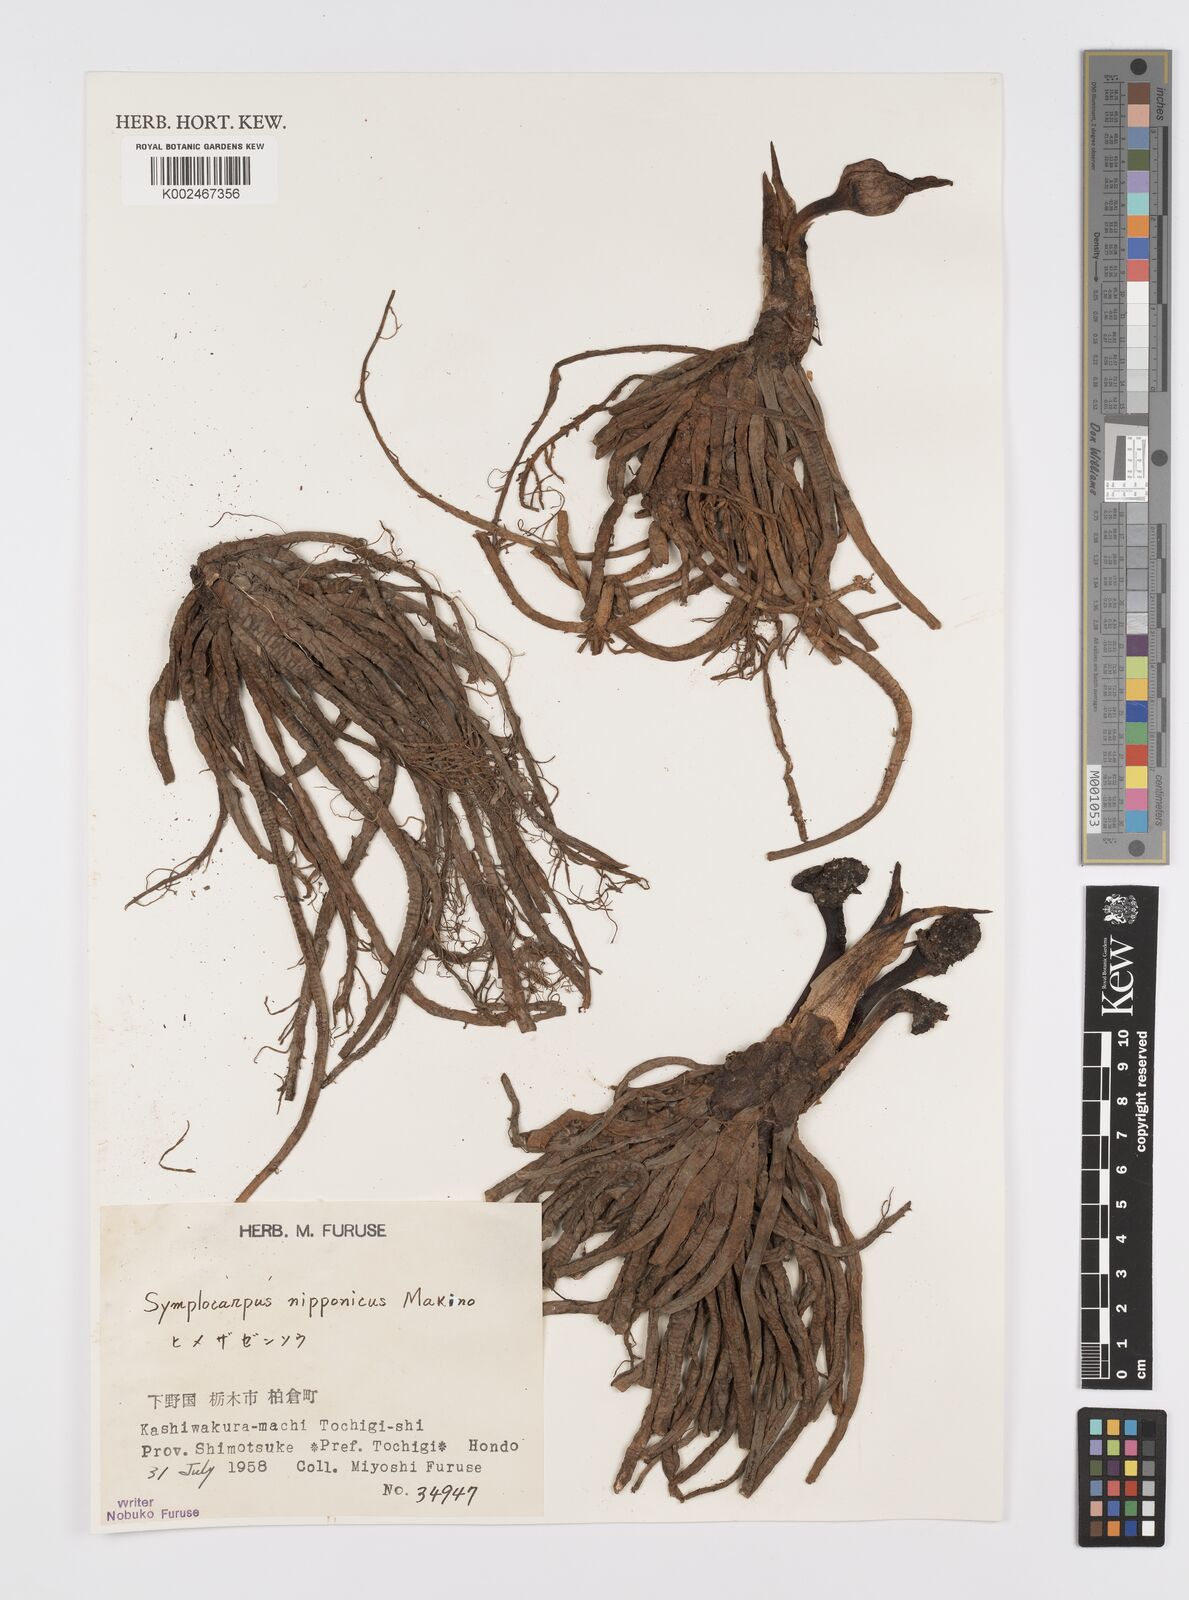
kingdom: Plantae
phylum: Tracheophyta
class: Liliopsida
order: Alismatales
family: Araceae
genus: Symplocarpus
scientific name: Symplocarpus nipponicus
